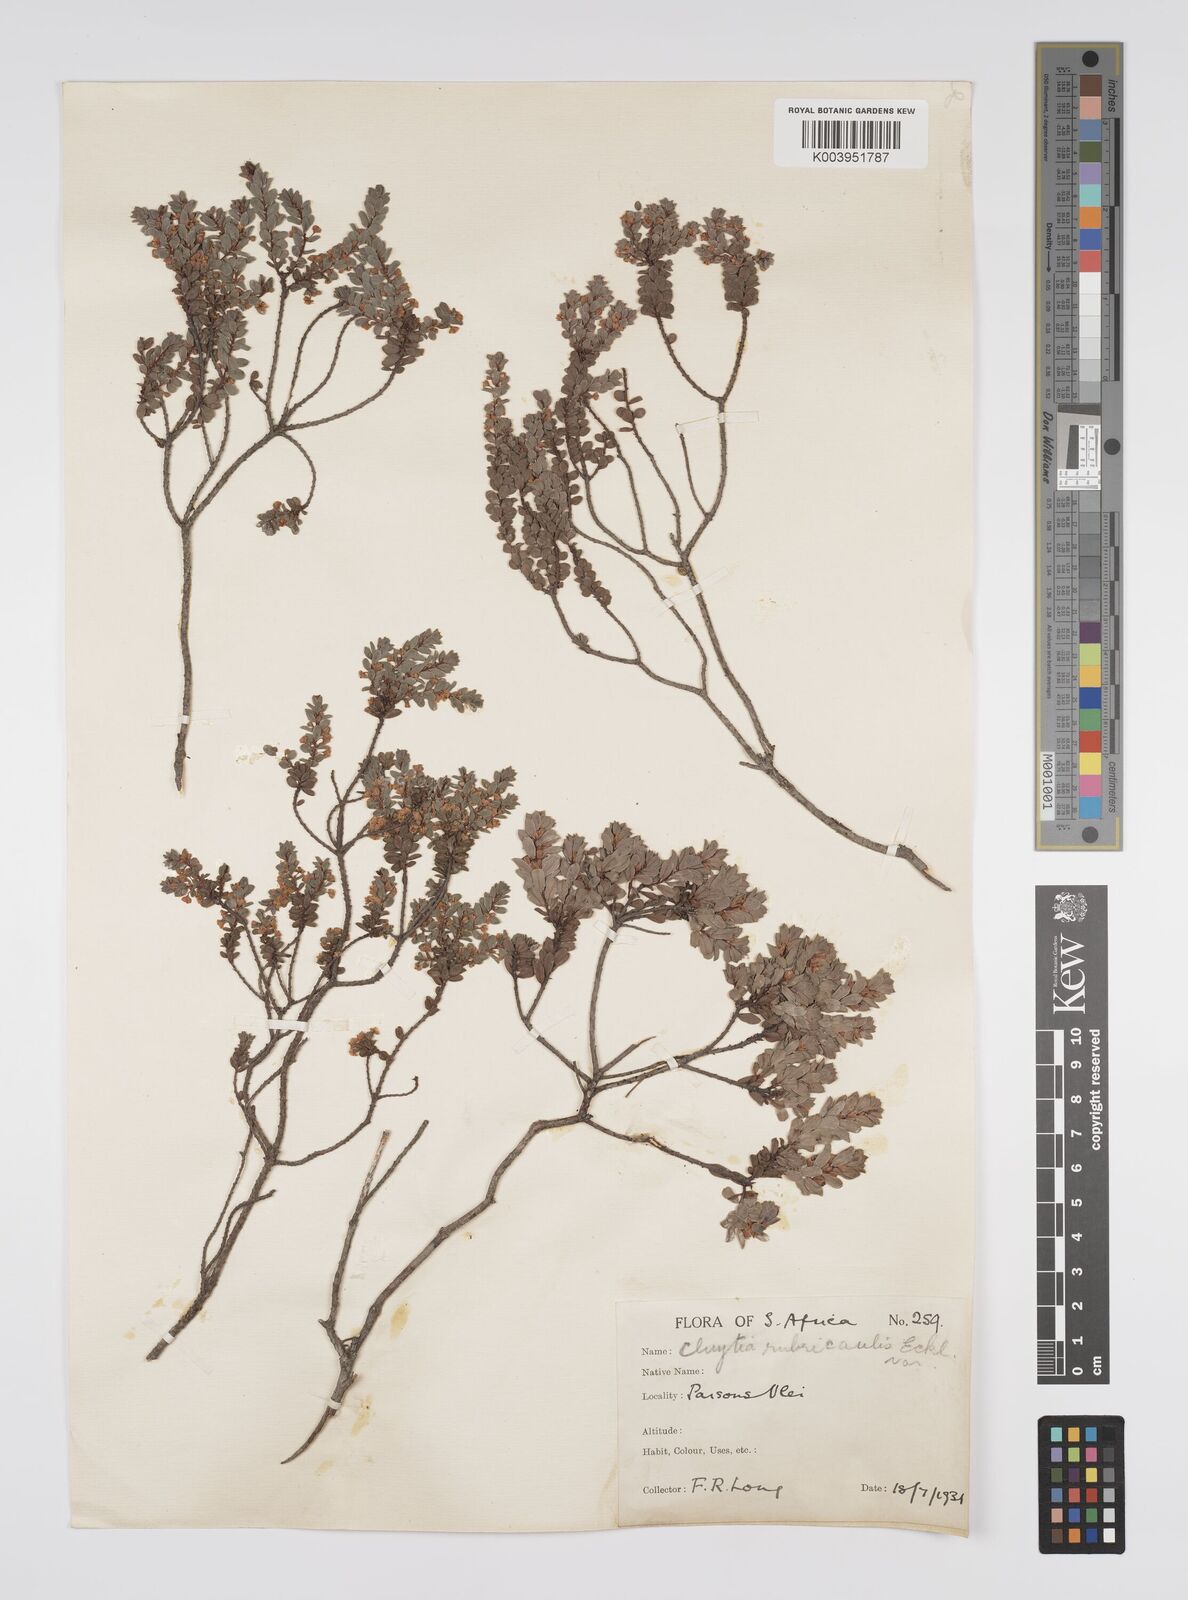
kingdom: Plantae
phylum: Tracheophyta
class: Magnoliopsida
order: Malpighiales
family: Peraceae
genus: Clutia
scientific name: Clutia rubricaulis
